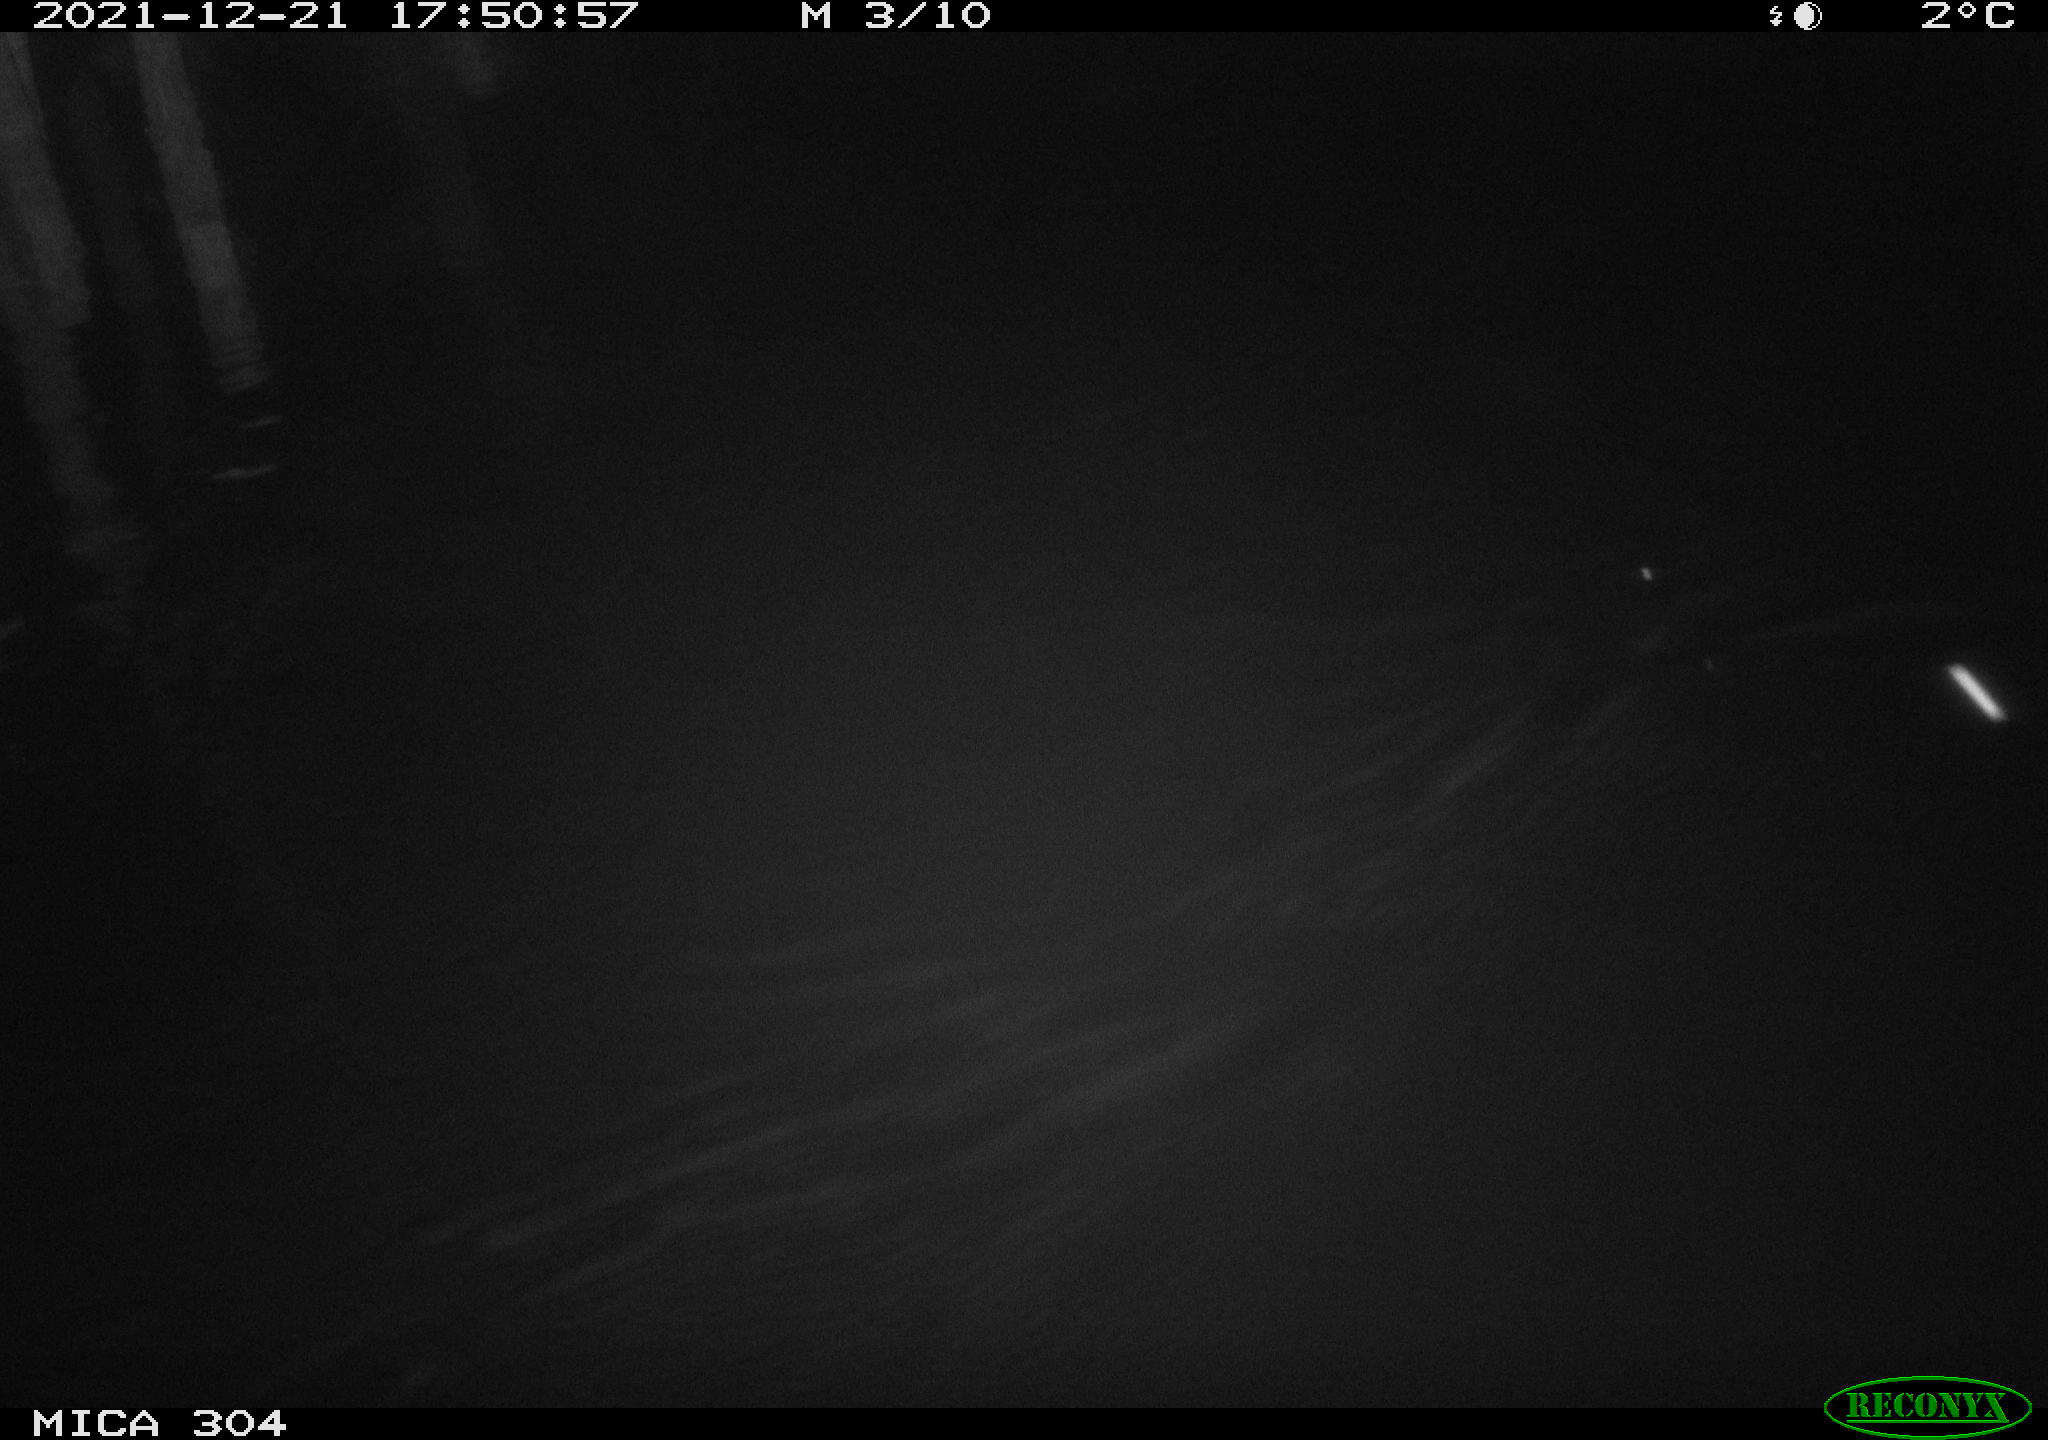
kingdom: Animalia
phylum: Chordata
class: Mammalia
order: Rodentia
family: Muridae
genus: Rattus
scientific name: Rattus norvegicus
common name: Brown rat
